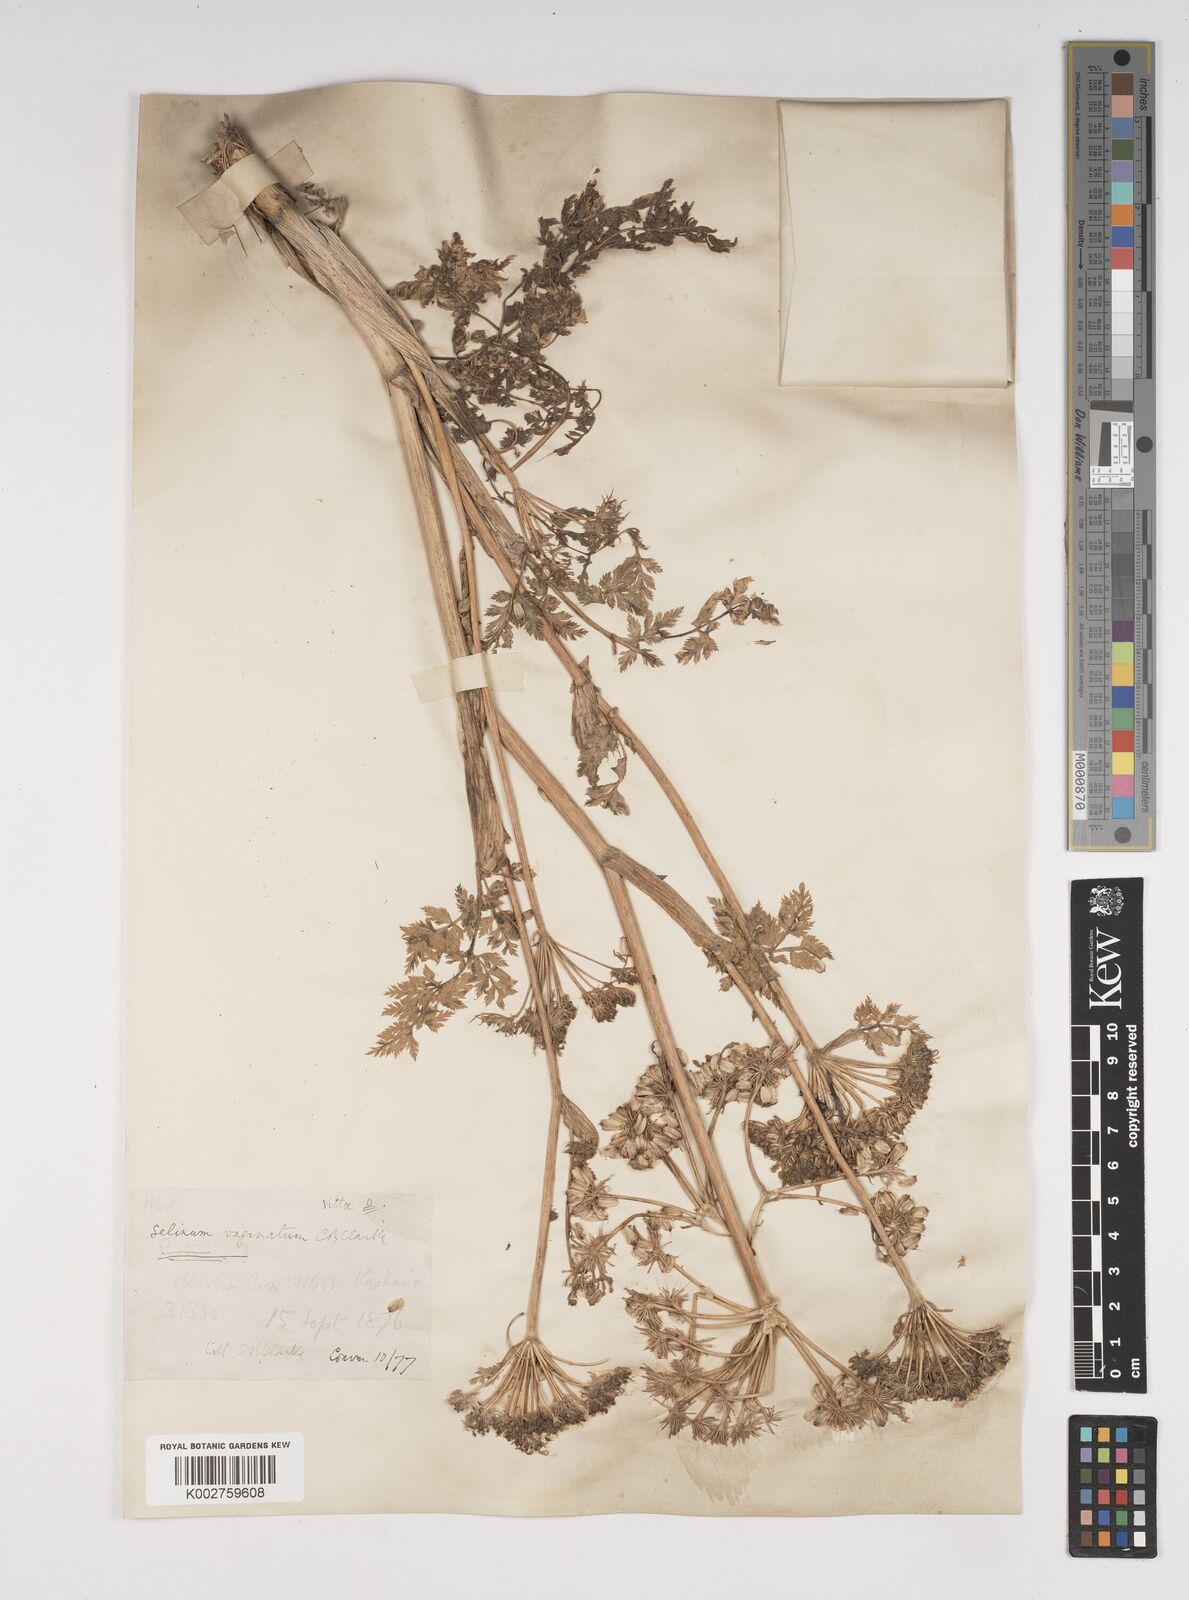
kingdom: Plantae
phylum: Tracheophyta
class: Magnoliopsida
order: Apiales
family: Apiaceae
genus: Selinum
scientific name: Selinum vaginatum
